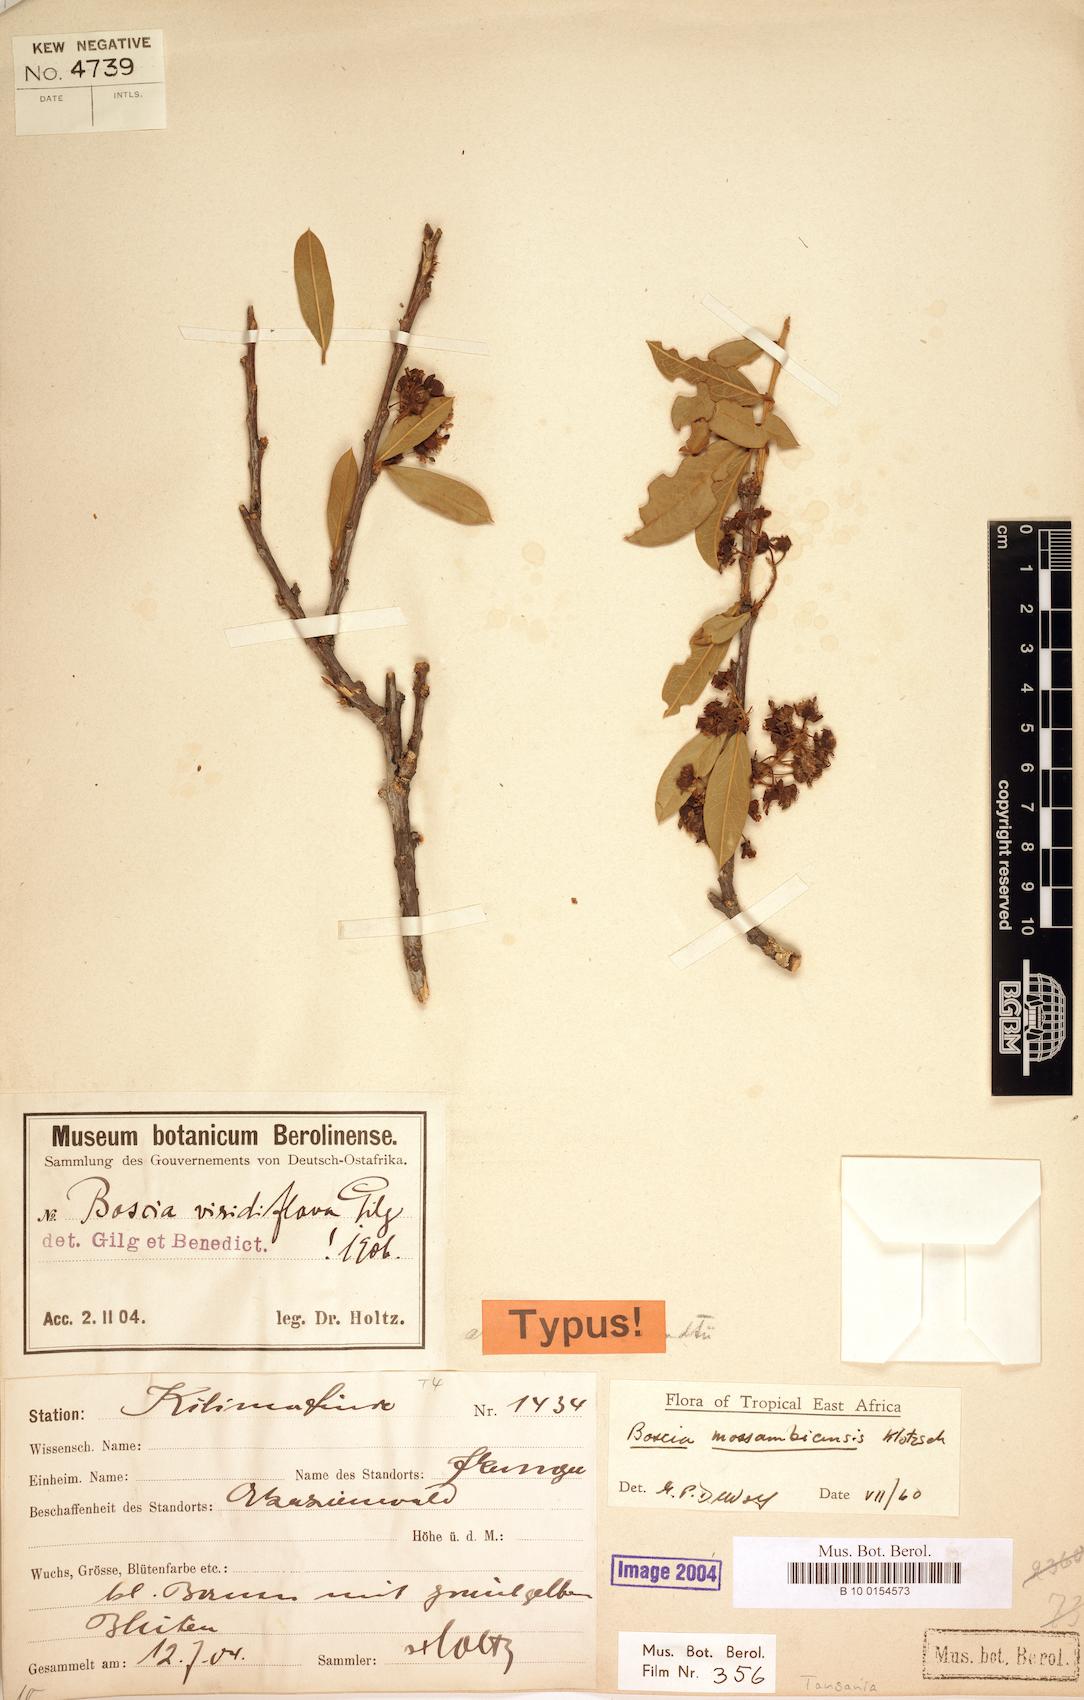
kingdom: Plantae
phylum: Tracheophyta
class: Magnoliopsida
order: Brassicales
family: Capparaceae
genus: Boscia
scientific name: Boscia mossambicensis
